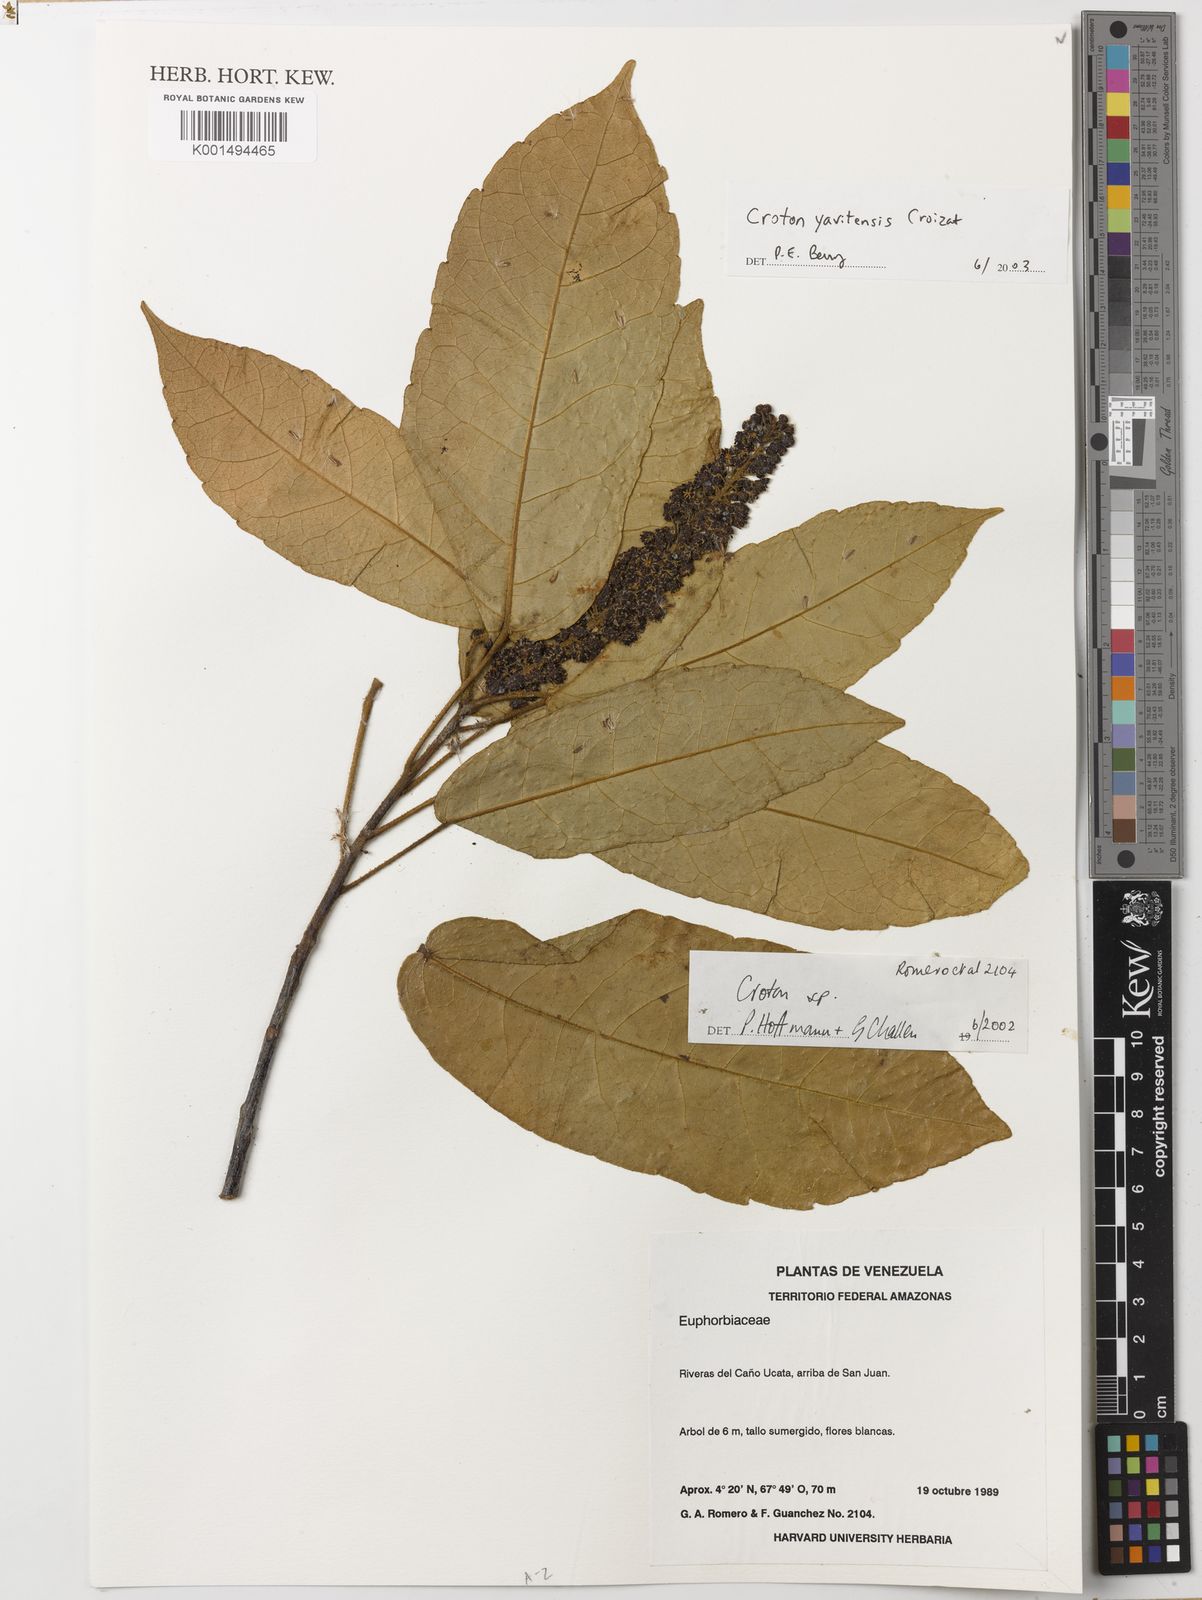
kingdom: Plantae
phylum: Tracheophyta
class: Magnoliopsida
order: Malpighiales
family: Euphorbiaceae
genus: Croton
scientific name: Croton yavitensis
